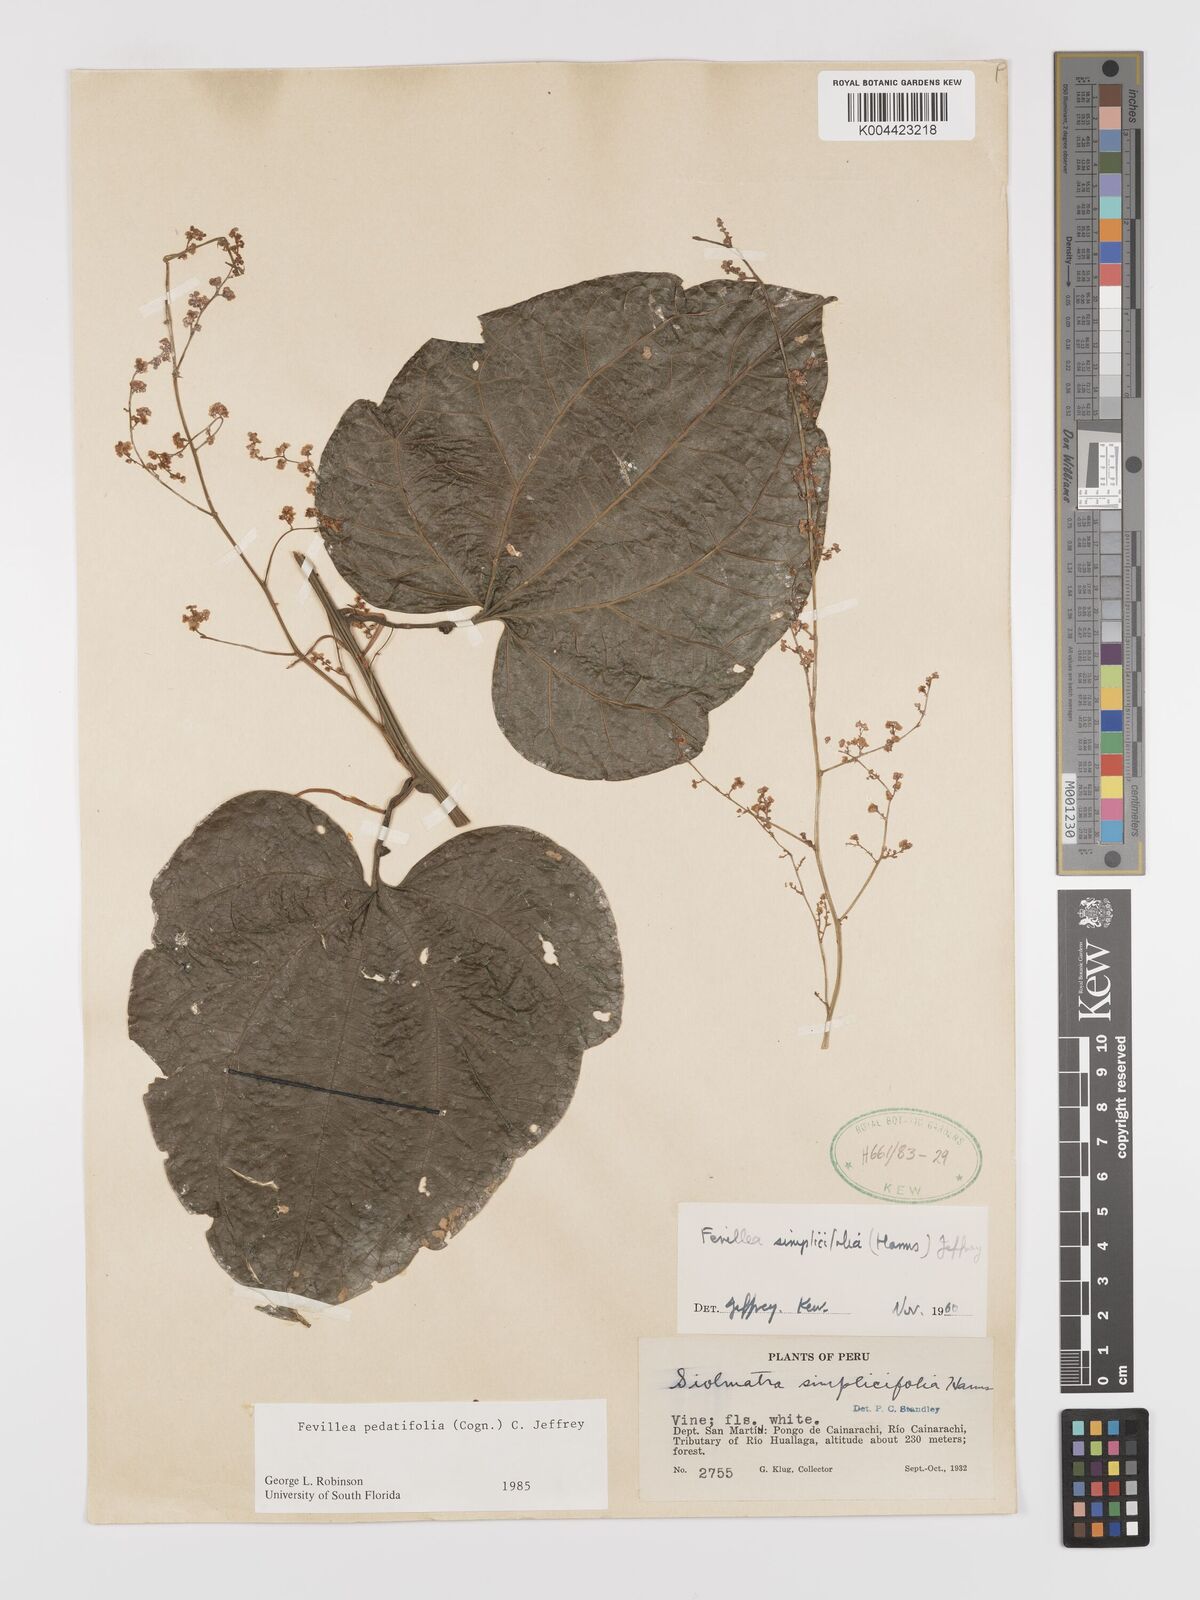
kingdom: Plantae
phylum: Tracheophyta
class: Magnoliopsida
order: Cucurbitales
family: Cucurbitaceae
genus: Fevillea
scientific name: Fevillea pedatifolia
